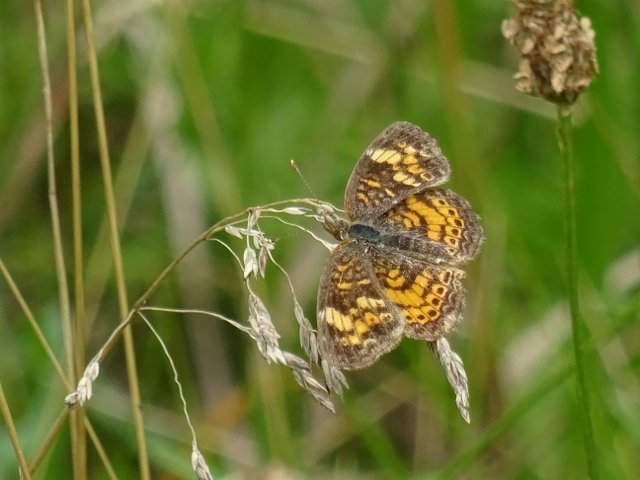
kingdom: Animalia
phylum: Arthropoda
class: Insecta
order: Lepidoptera
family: Nymphalidae
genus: Phyciodes
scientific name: Phyciodes tharos
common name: Pearl Crescent
